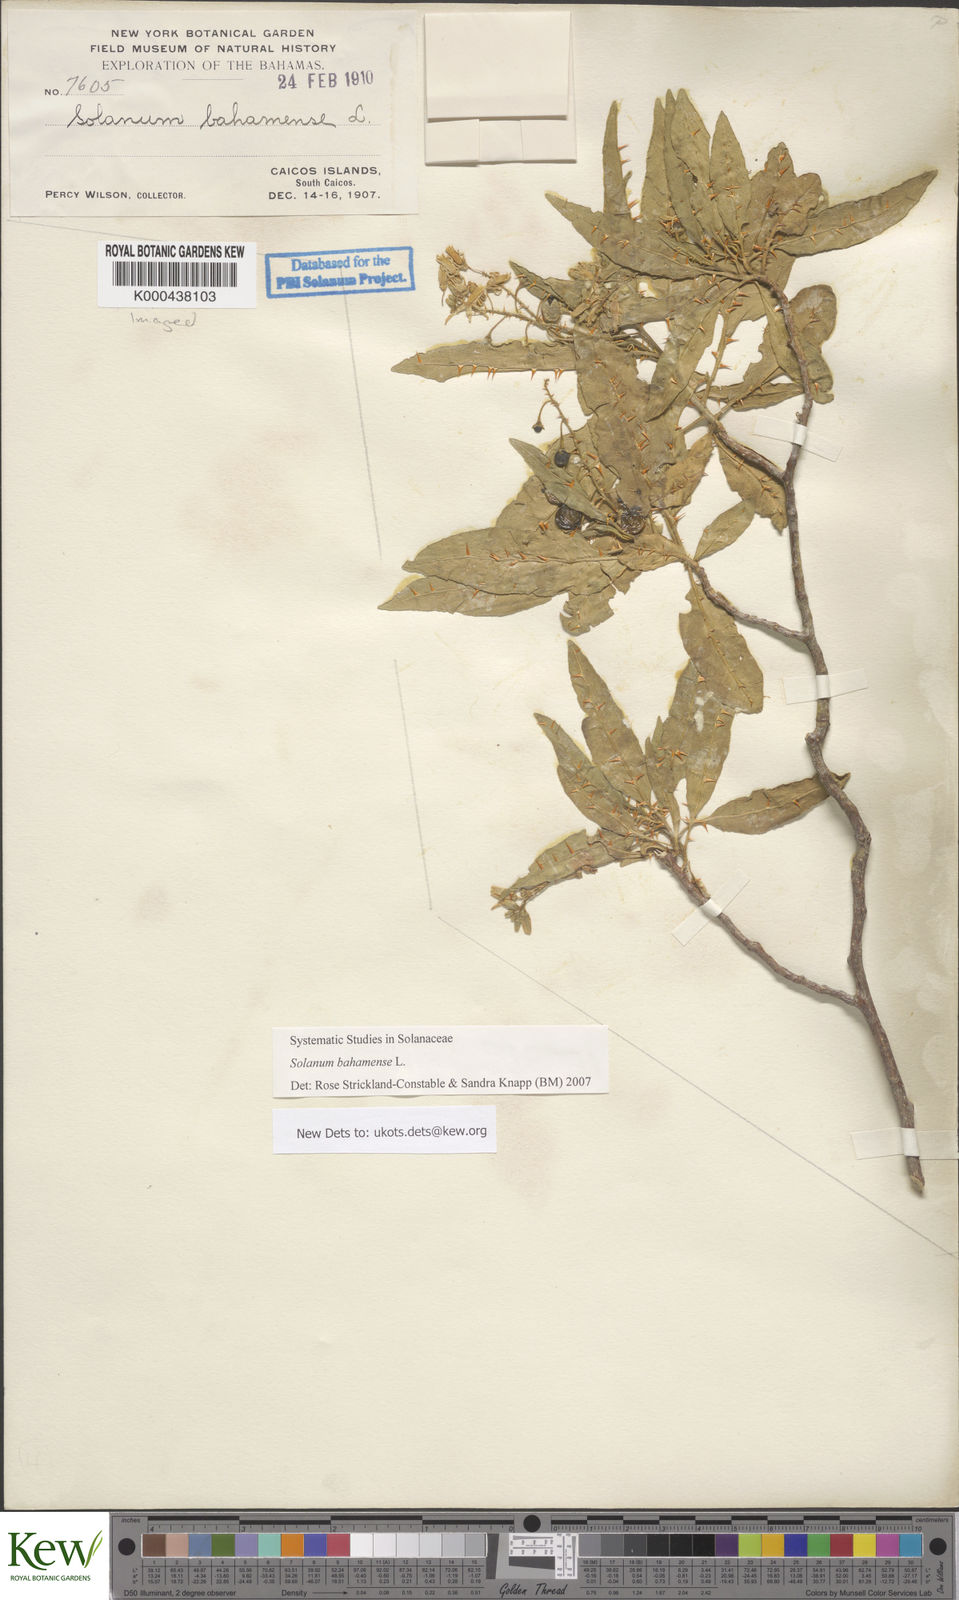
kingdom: Plantae
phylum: Tracheophyta
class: Magnoliopsida
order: Solanales
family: Solanaceae
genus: Solanum
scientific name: Solanum bahamense
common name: Canker-berry
